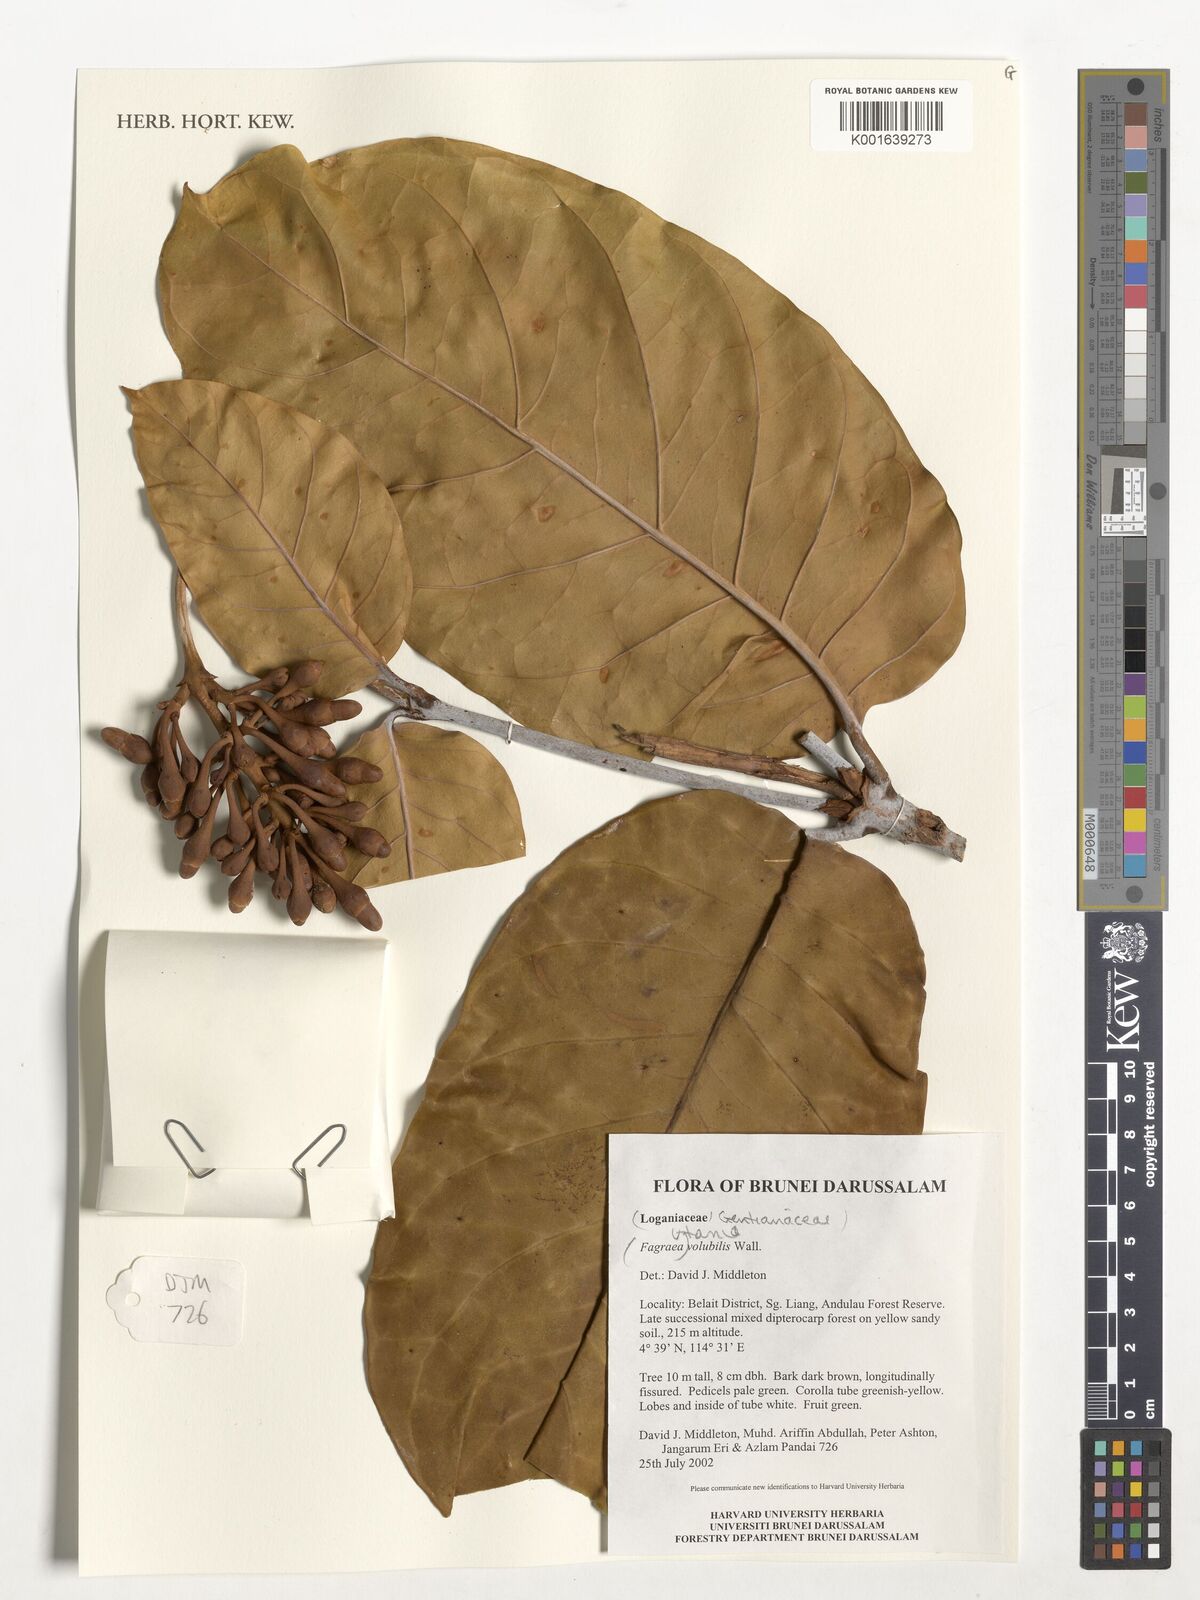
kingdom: Plantae
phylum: Tracheophyta
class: Magnoliopsida
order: Gentianales
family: Gentianaceae
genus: Utania
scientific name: Utania volubilis
